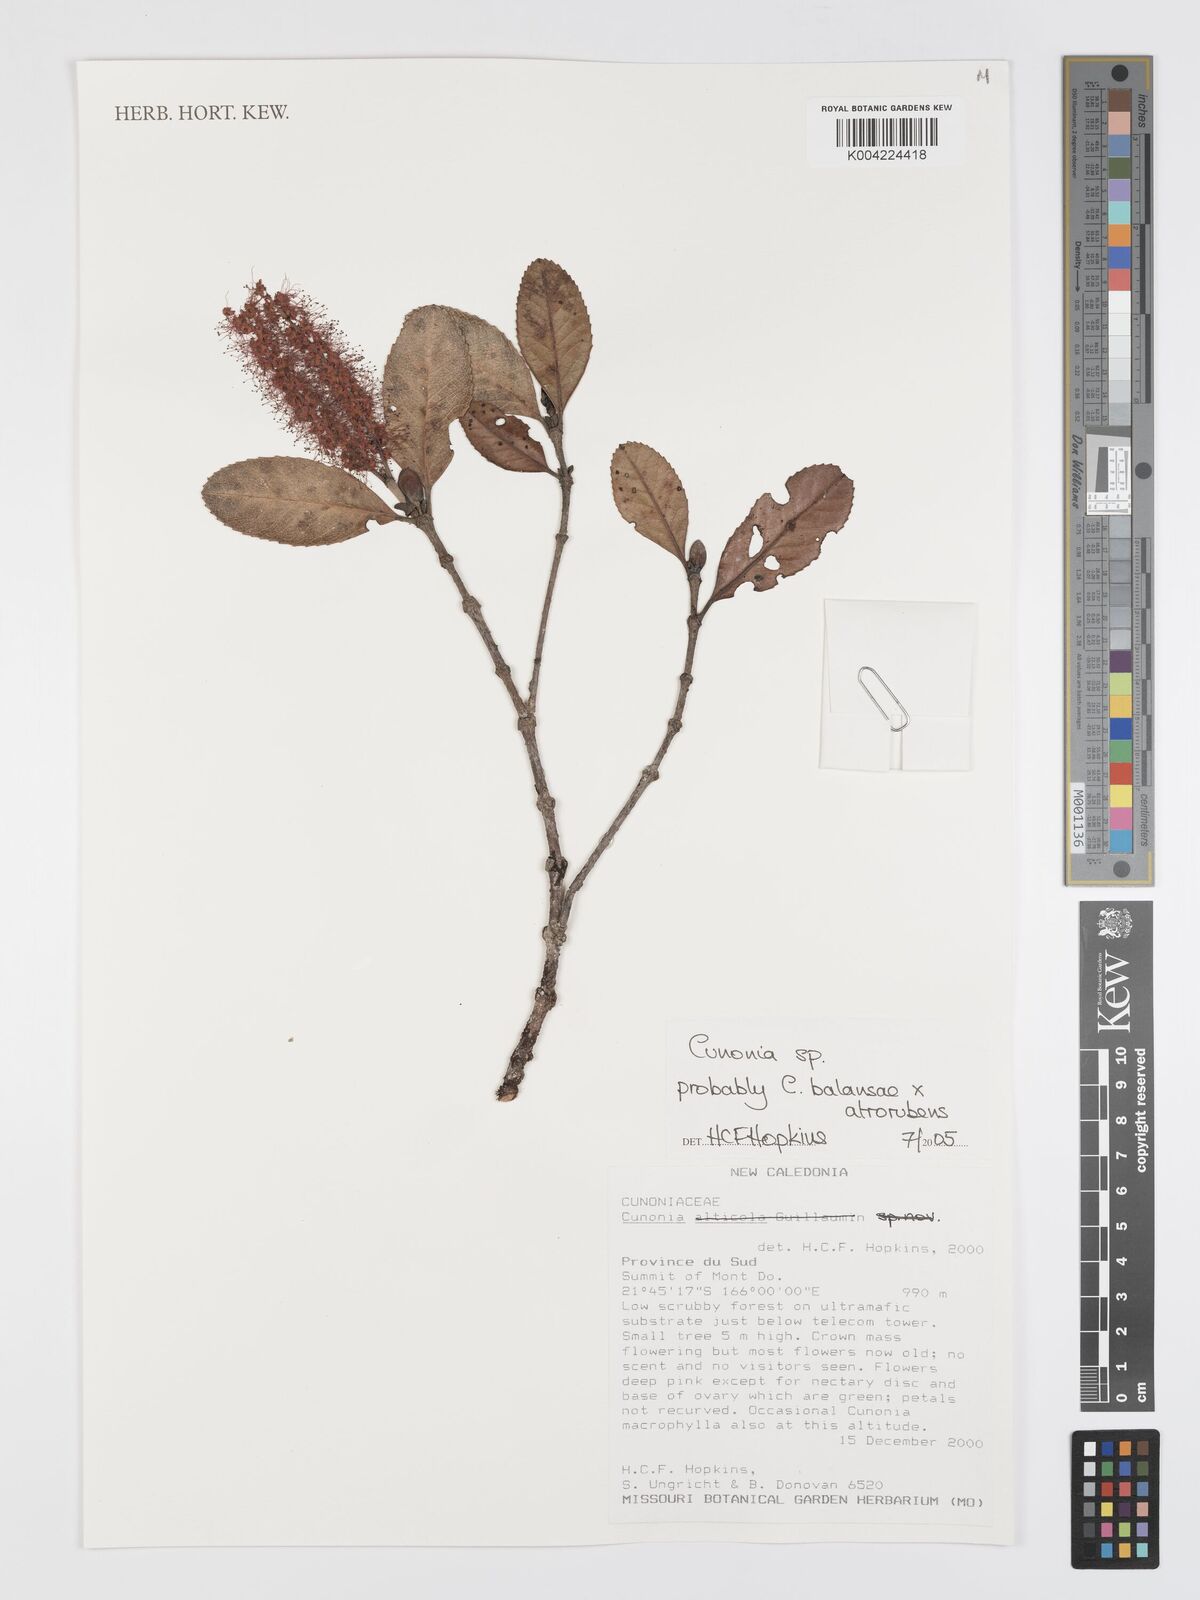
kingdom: Plantae
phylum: Tracheophyta
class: Magnoliopsida
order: Oxalidales
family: Cunoniaceae
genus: Cunonia
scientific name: Cunonia
